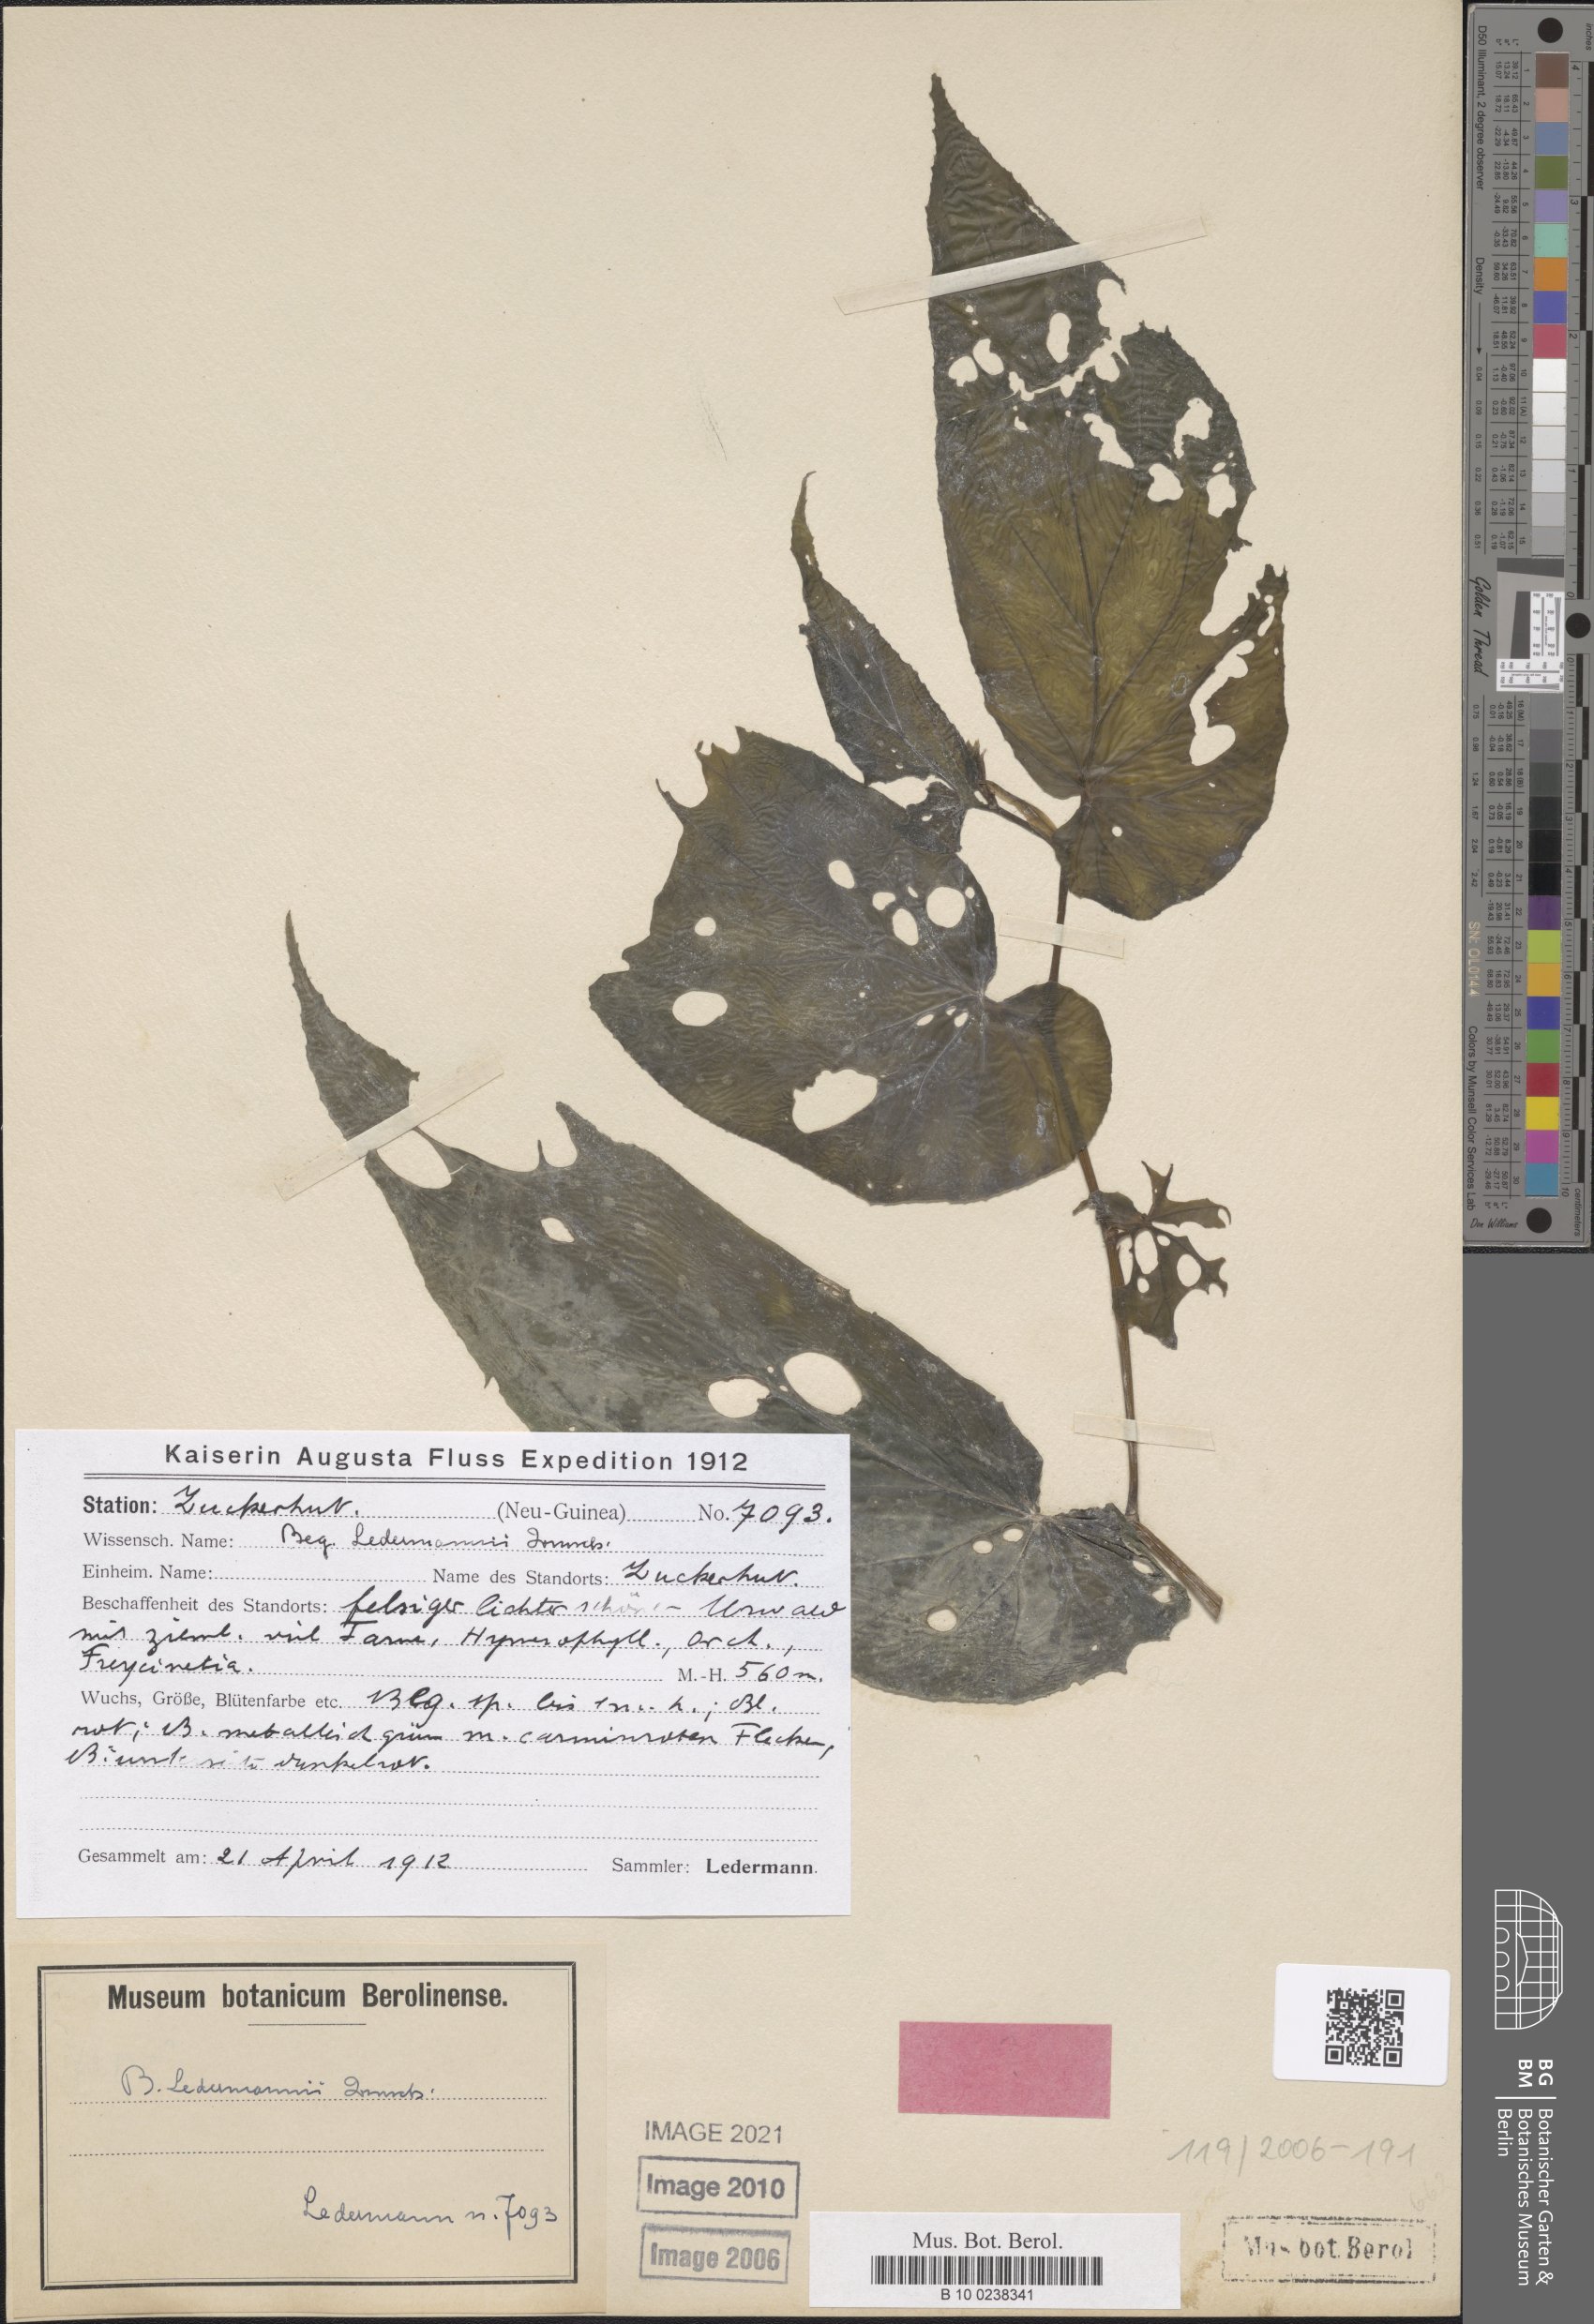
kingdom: Plantae
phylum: Tracheophyta
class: Magnoliopsida
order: Cucurbitales
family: Begoniaceae
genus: Begonia
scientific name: Begonia ledermannii
